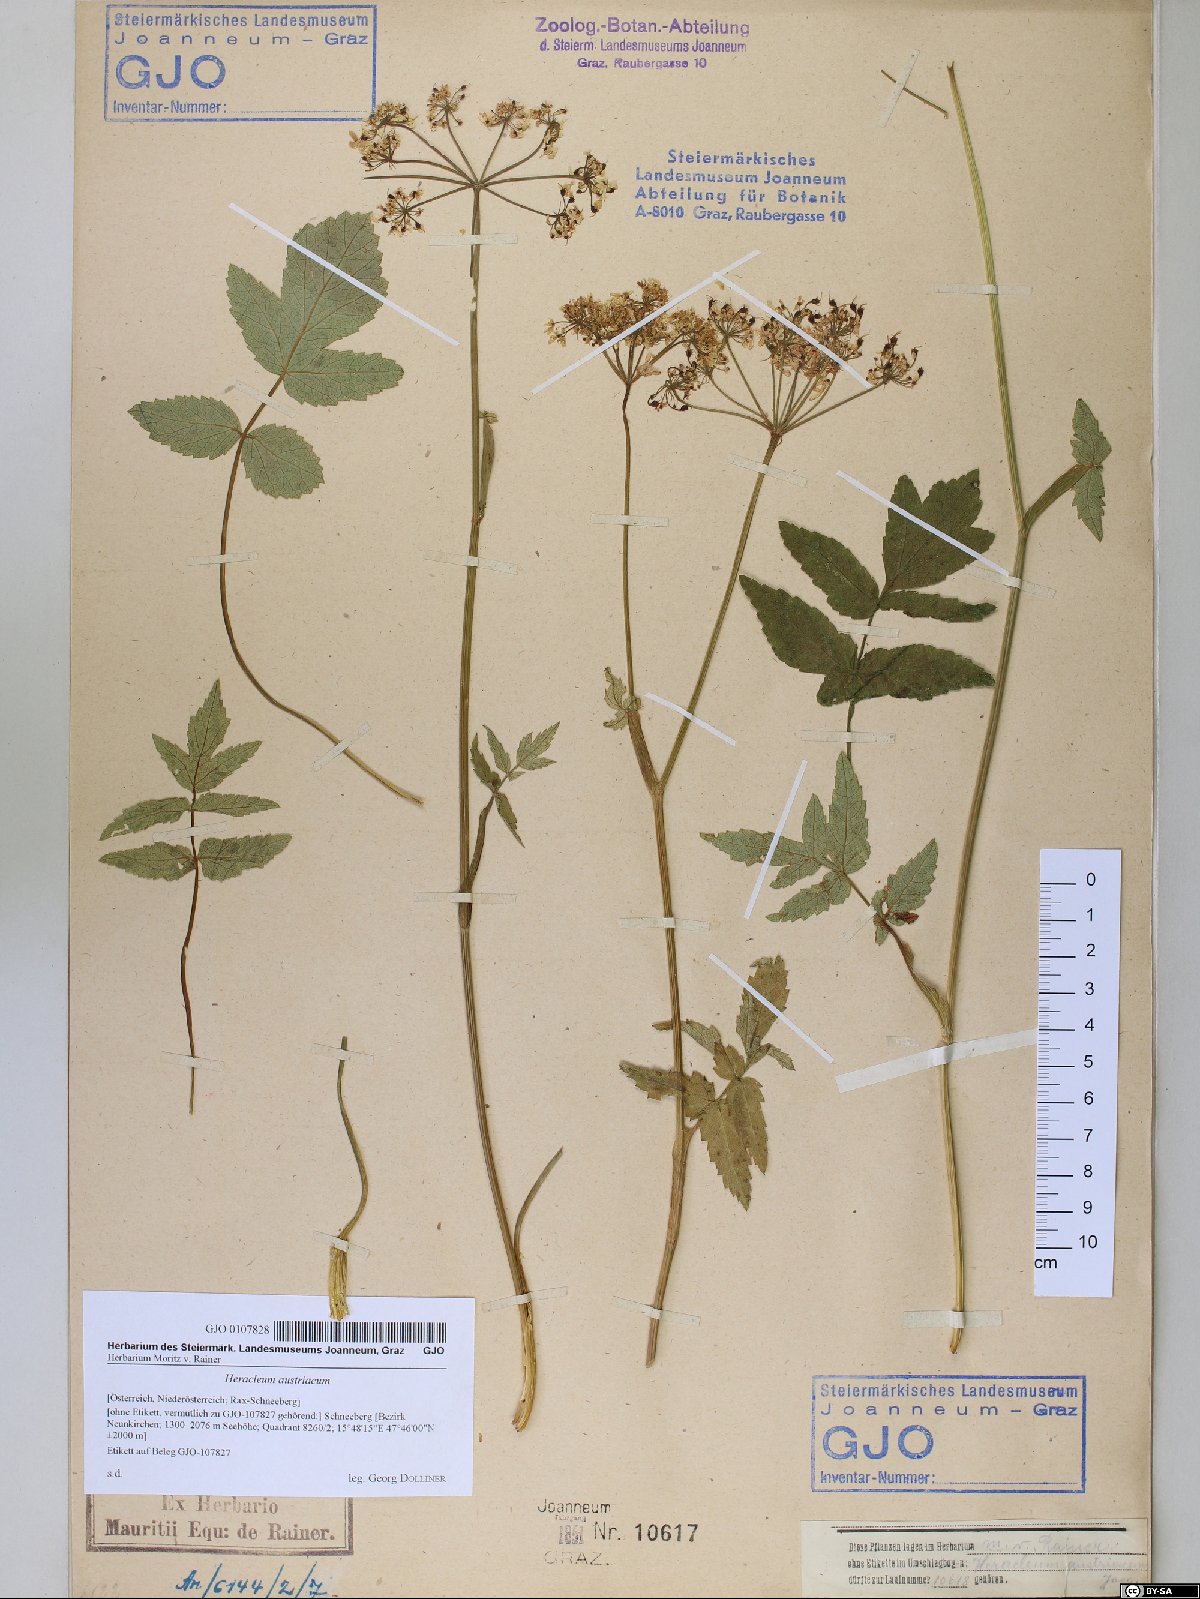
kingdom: Plantae
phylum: Tracheophyta
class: Magnoliopsida
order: Apiales
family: Apiaceae
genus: Heracleum
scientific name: Heracleum austriacum
